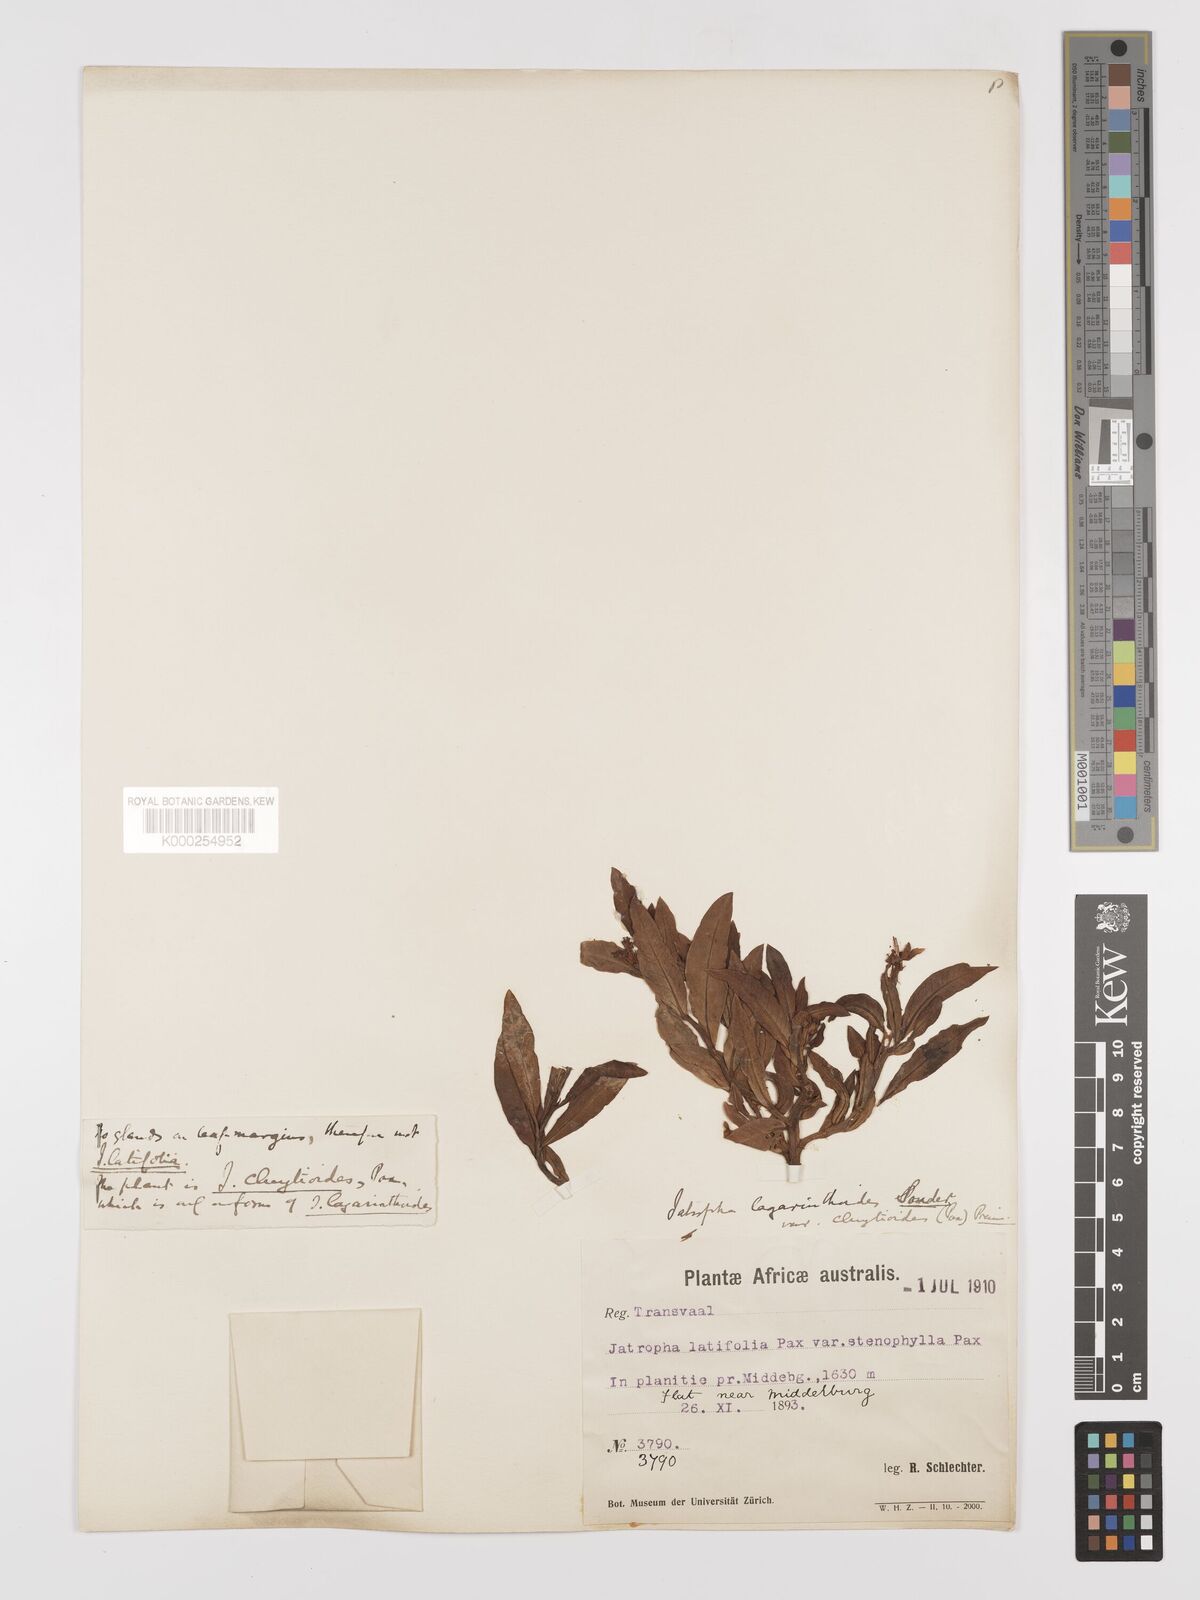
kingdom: Plantae
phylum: Tracheophyta
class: Magnoliopsida
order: Malpighiales
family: Euphorbiaceae
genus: Jatropha
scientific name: Jatropha lagarinthoides
